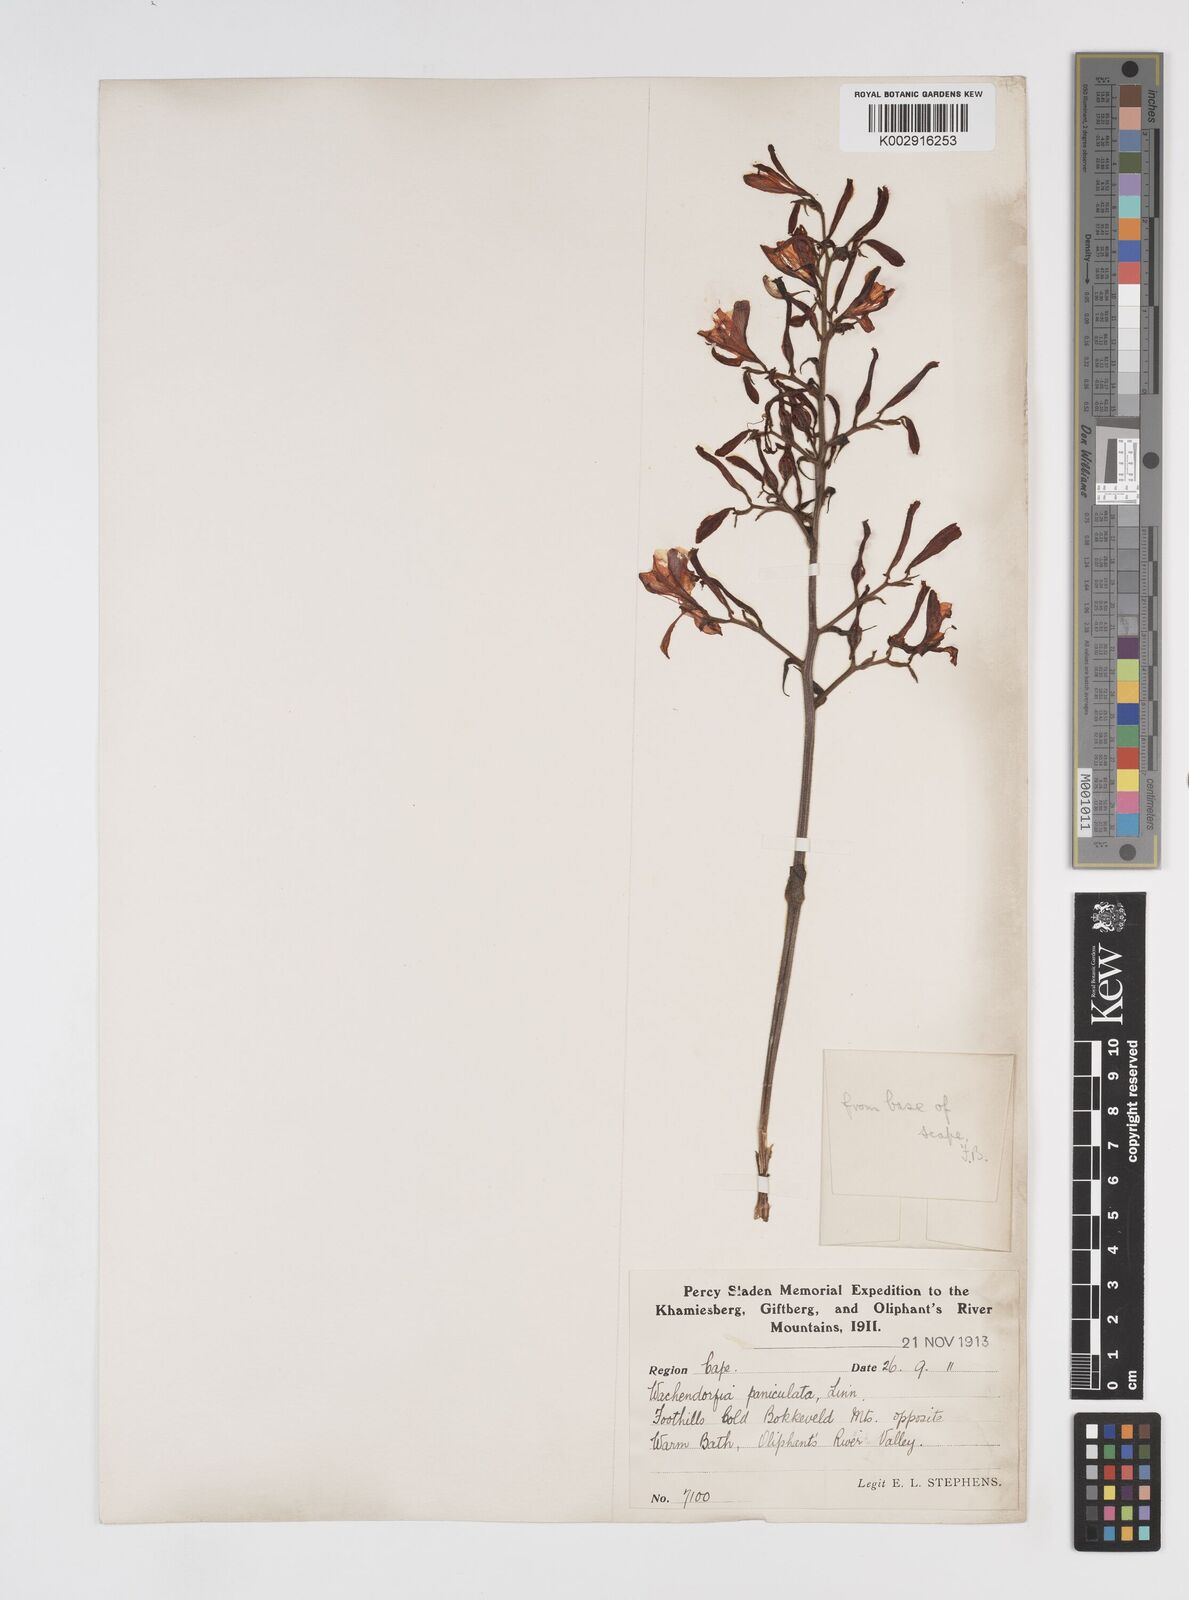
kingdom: Plantae
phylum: Tracheophyta
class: Liliopsida
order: Commelinales
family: Haemodoraceae
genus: Wachendorfia
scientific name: Wachendorfia paniculata
